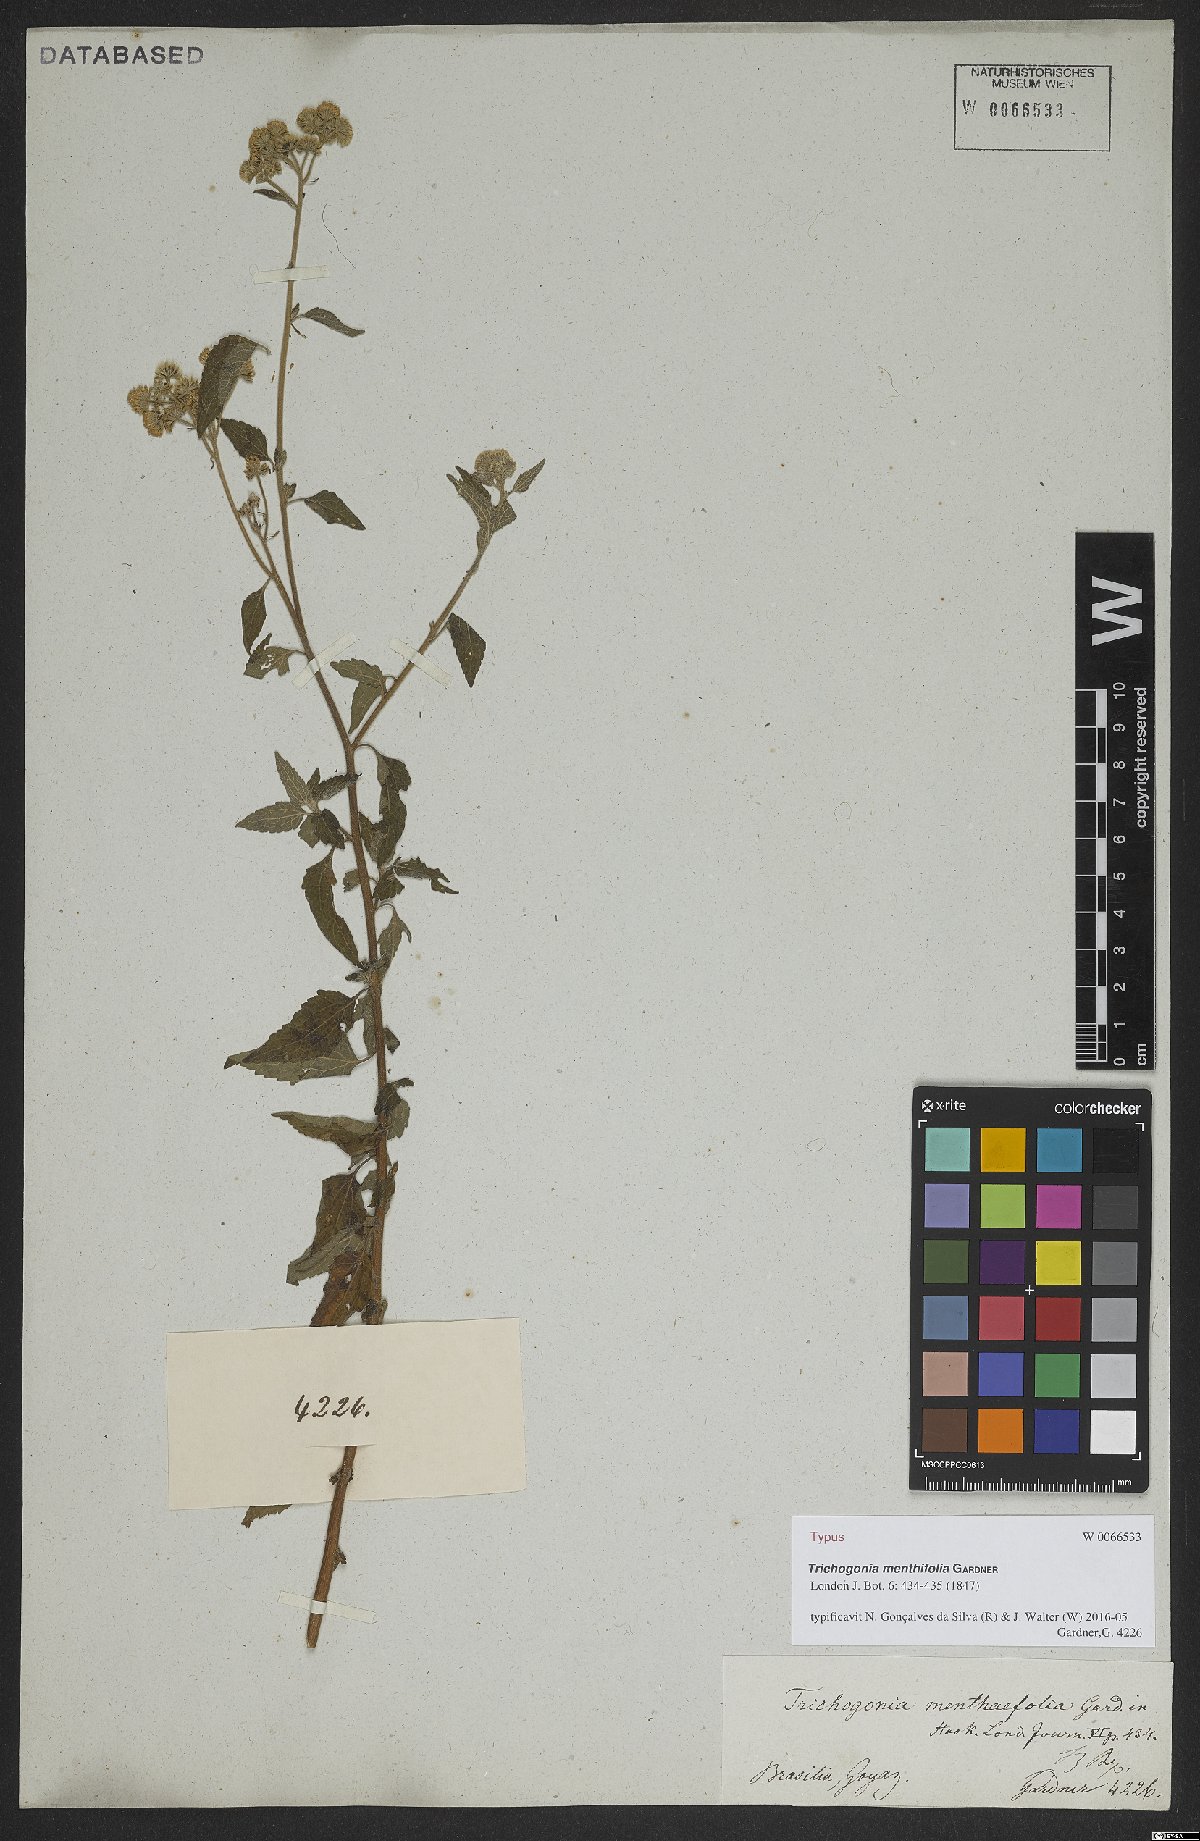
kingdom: Plantae
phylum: Tracheophyta
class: Magnoliopsida
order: Asterales
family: Asteraceae
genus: Trichogonia
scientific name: Trichogonia menthifolia
